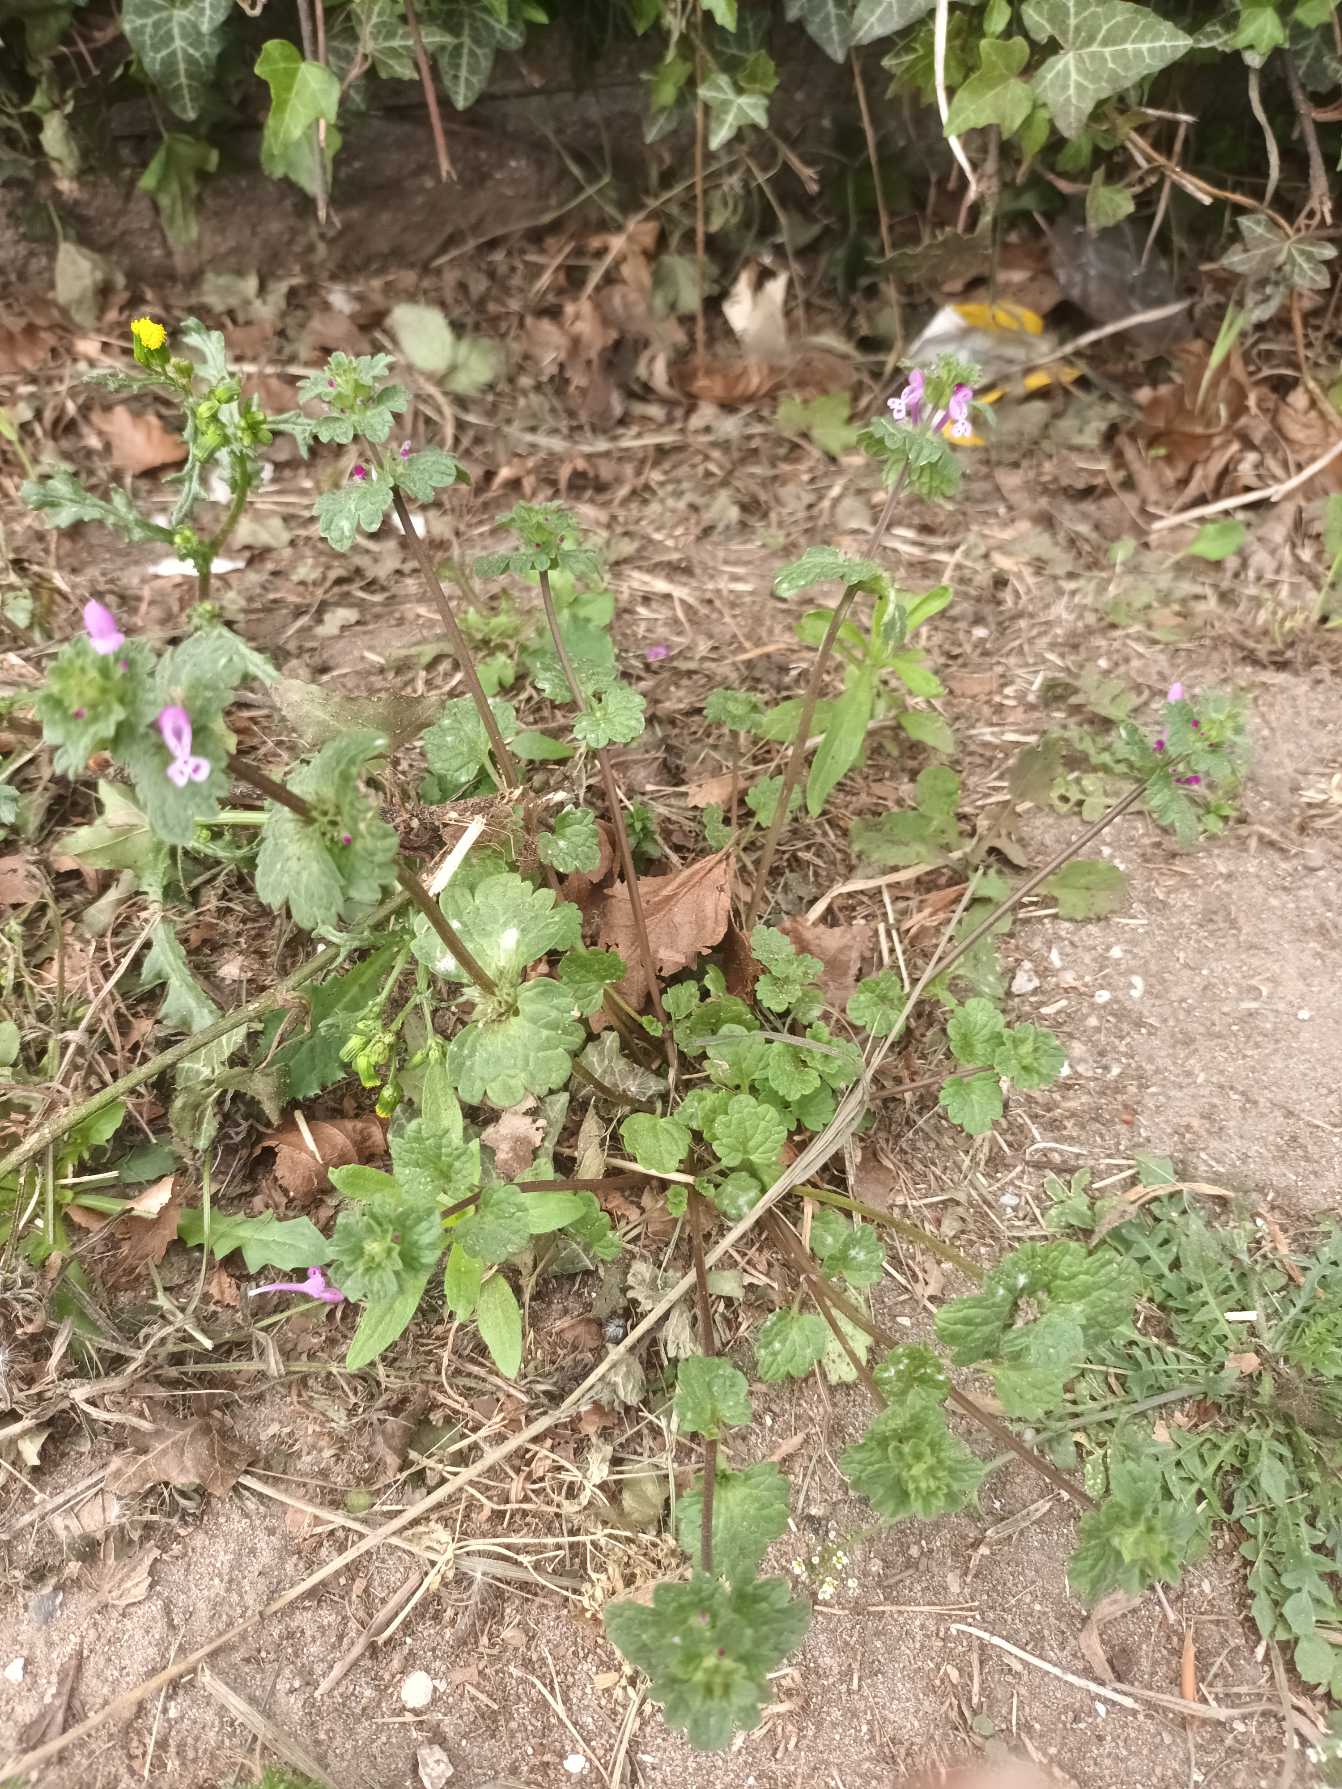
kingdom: Plantae
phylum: Tracheophyta
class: Magnoliopsida
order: Lamiales
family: Lamiaceae
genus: Lamium
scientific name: Lamium amplexicaule
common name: Liden tvetand
